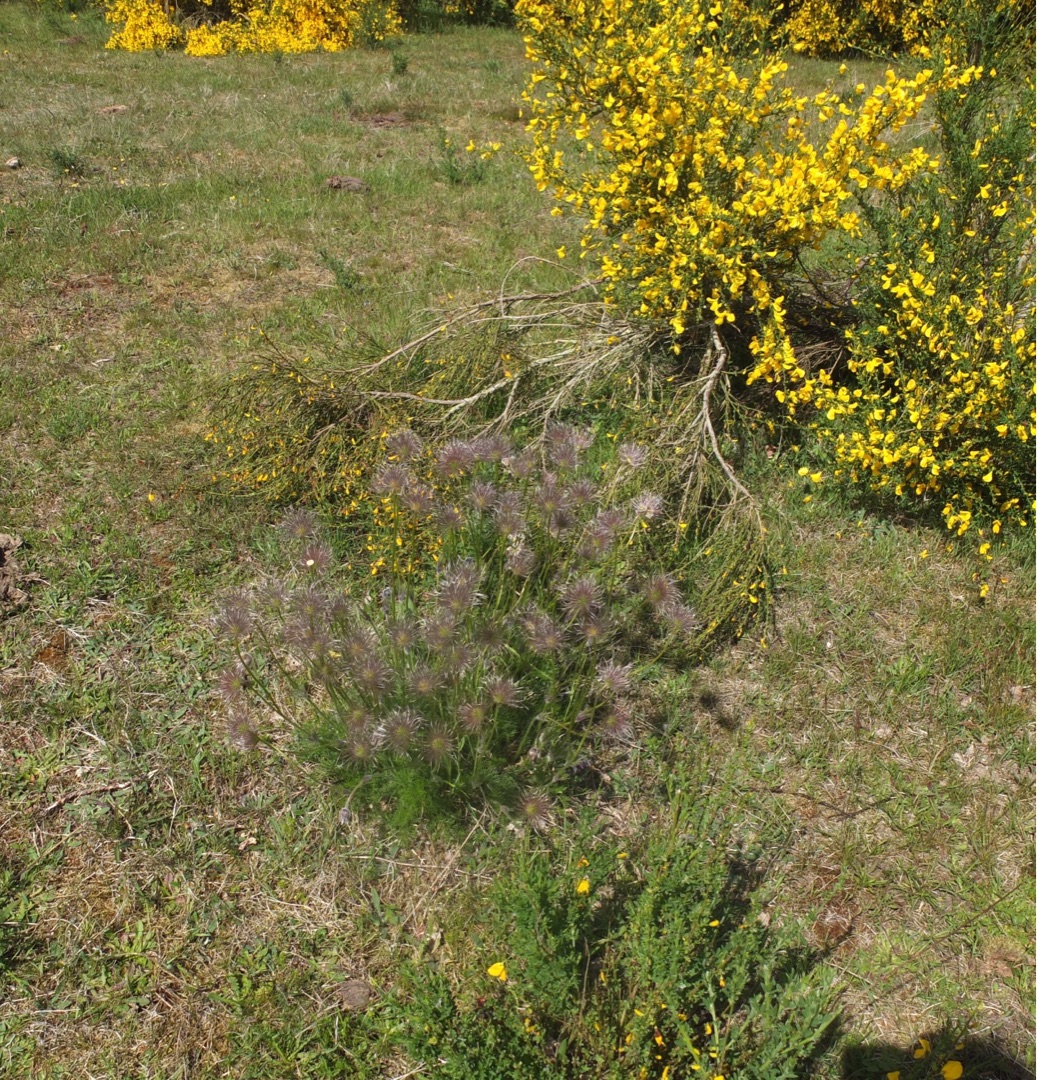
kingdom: Plantae
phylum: Tracheophyta
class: Magnoliopsida
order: Ranunculales
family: Ranunculaceae
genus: Pulsatilla
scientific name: Pulsatilla
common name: Kobjældeslægten
